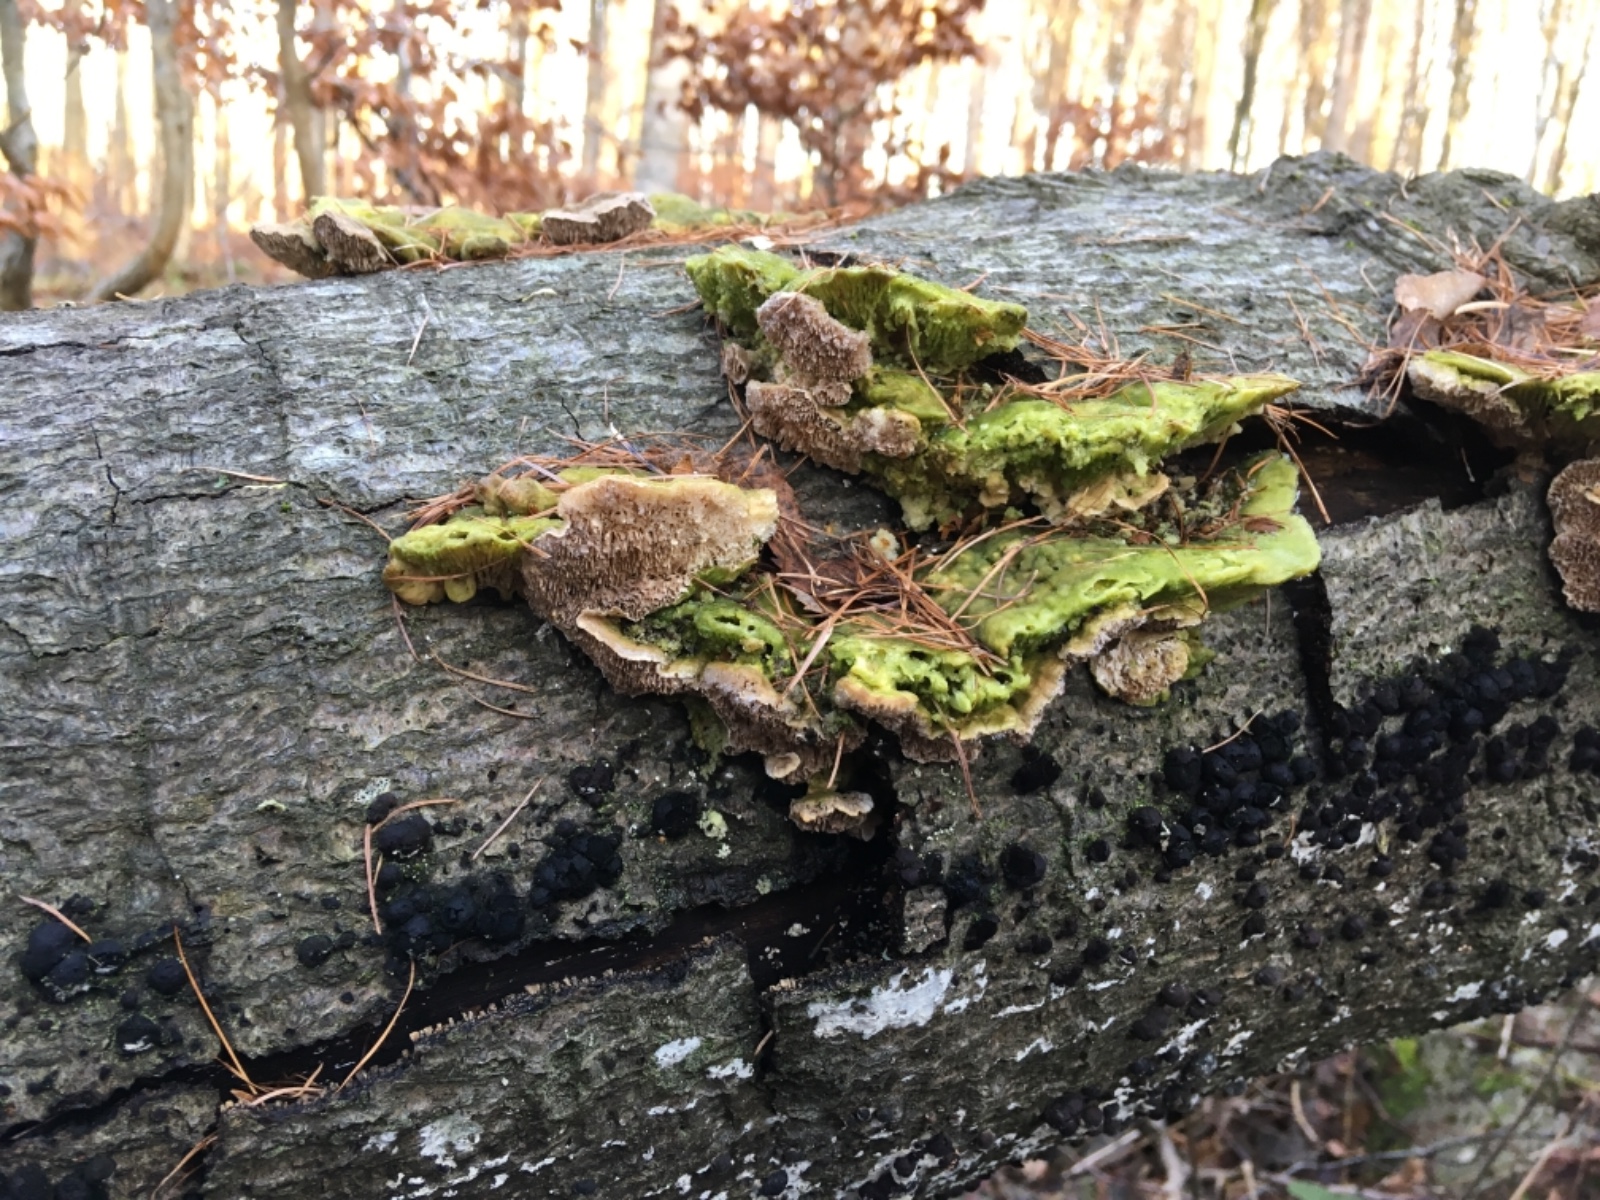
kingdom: Fungi
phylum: Basidiomycota
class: Agaricomycetes
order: Polyporales
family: Polyporaceae
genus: Lenzites
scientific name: Lenzites betulinus
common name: birke-læderporesvamp
